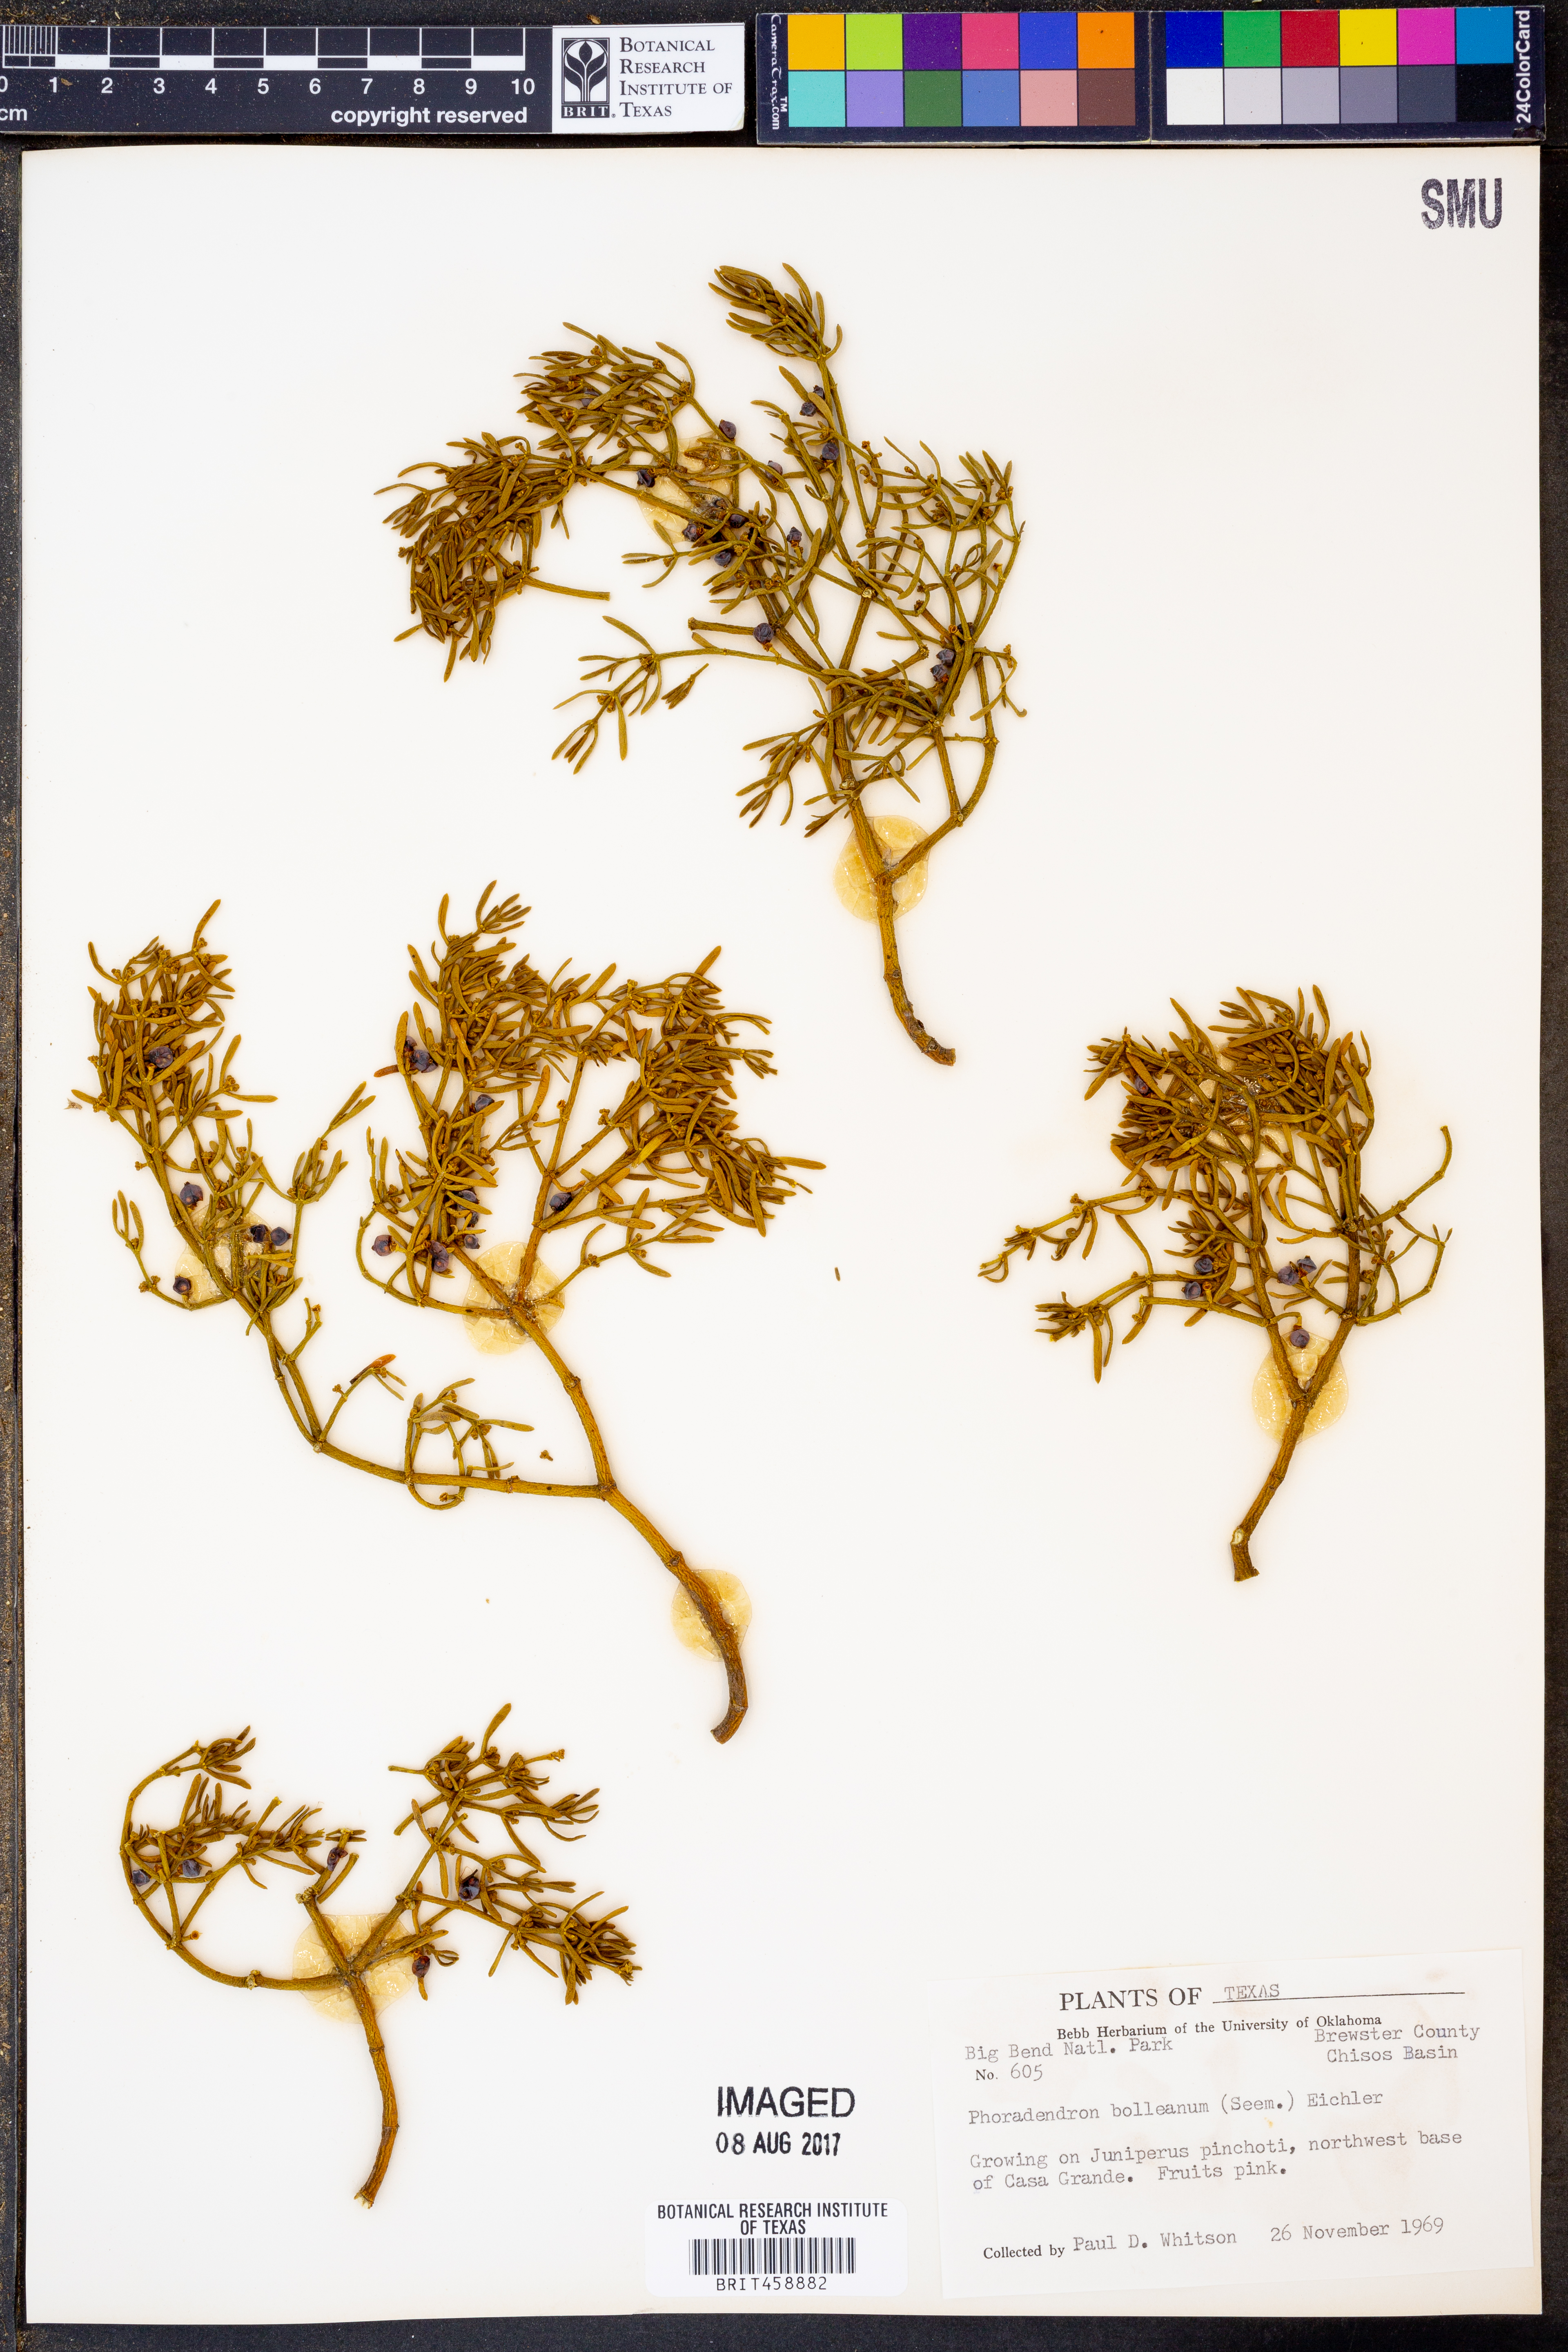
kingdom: Plantae
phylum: Tracheophyta
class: Magnoliopsida
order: Santalales
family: Viscaceae
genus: Phoradendron
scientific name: Phoradendron bolleanum
